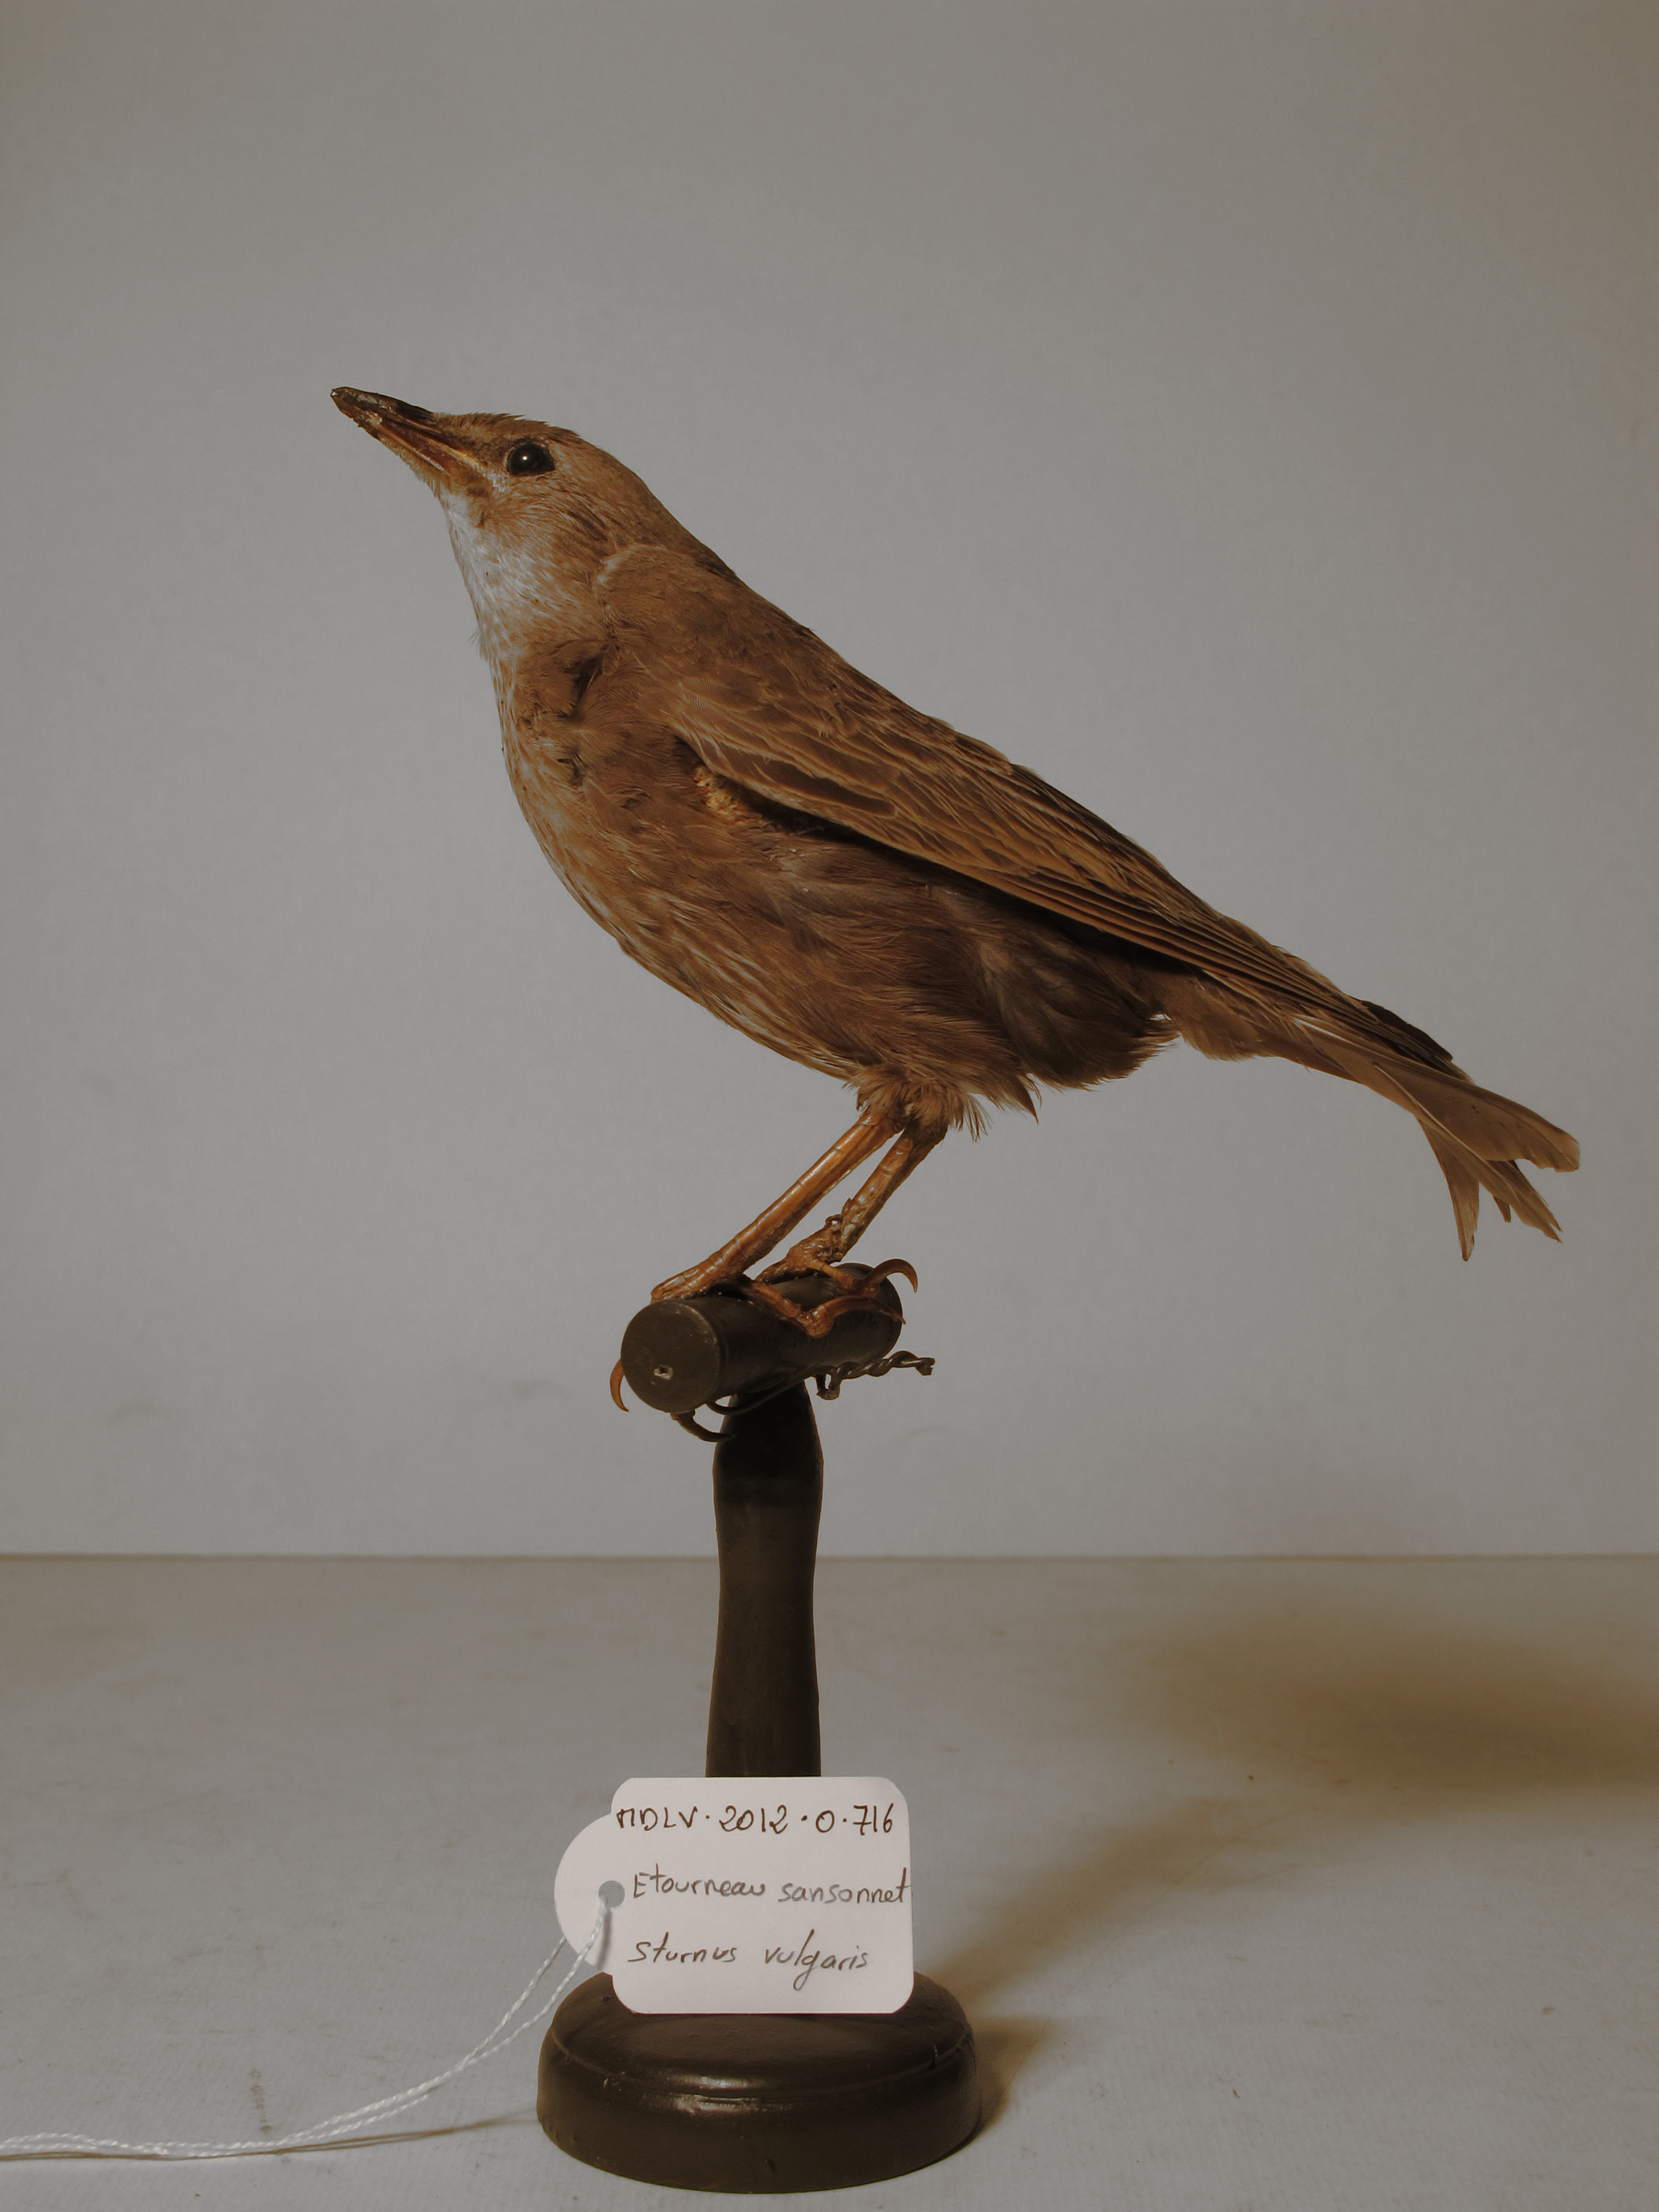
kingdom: Animalia
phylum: Chordata
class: Aves
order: Passeriformes
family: Sturnidae
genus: Sturnus
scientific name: Sturnus vulgaris
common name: Common Starling
